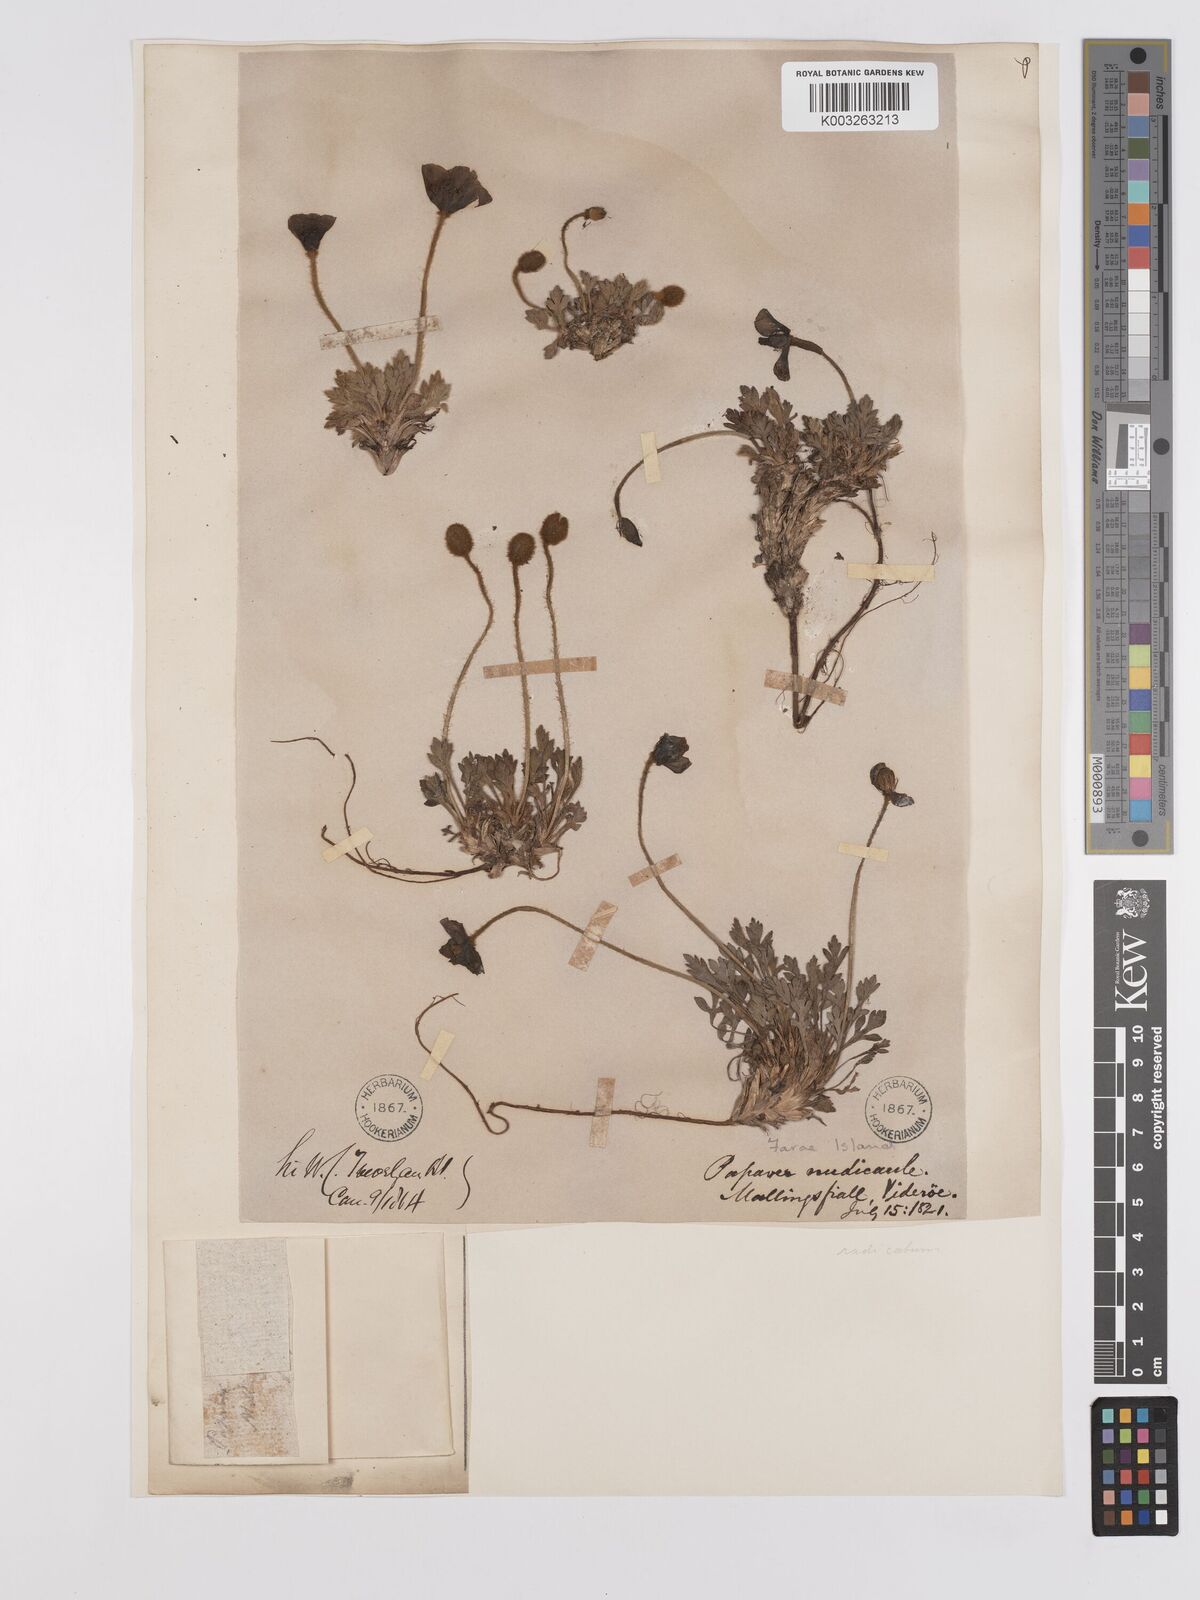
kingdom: Plantae
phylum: Tracheophyta
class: Magnoliopsida
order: Ranunculales
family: Papaveraceae
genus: Papaver
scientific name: Papaver radicatum
